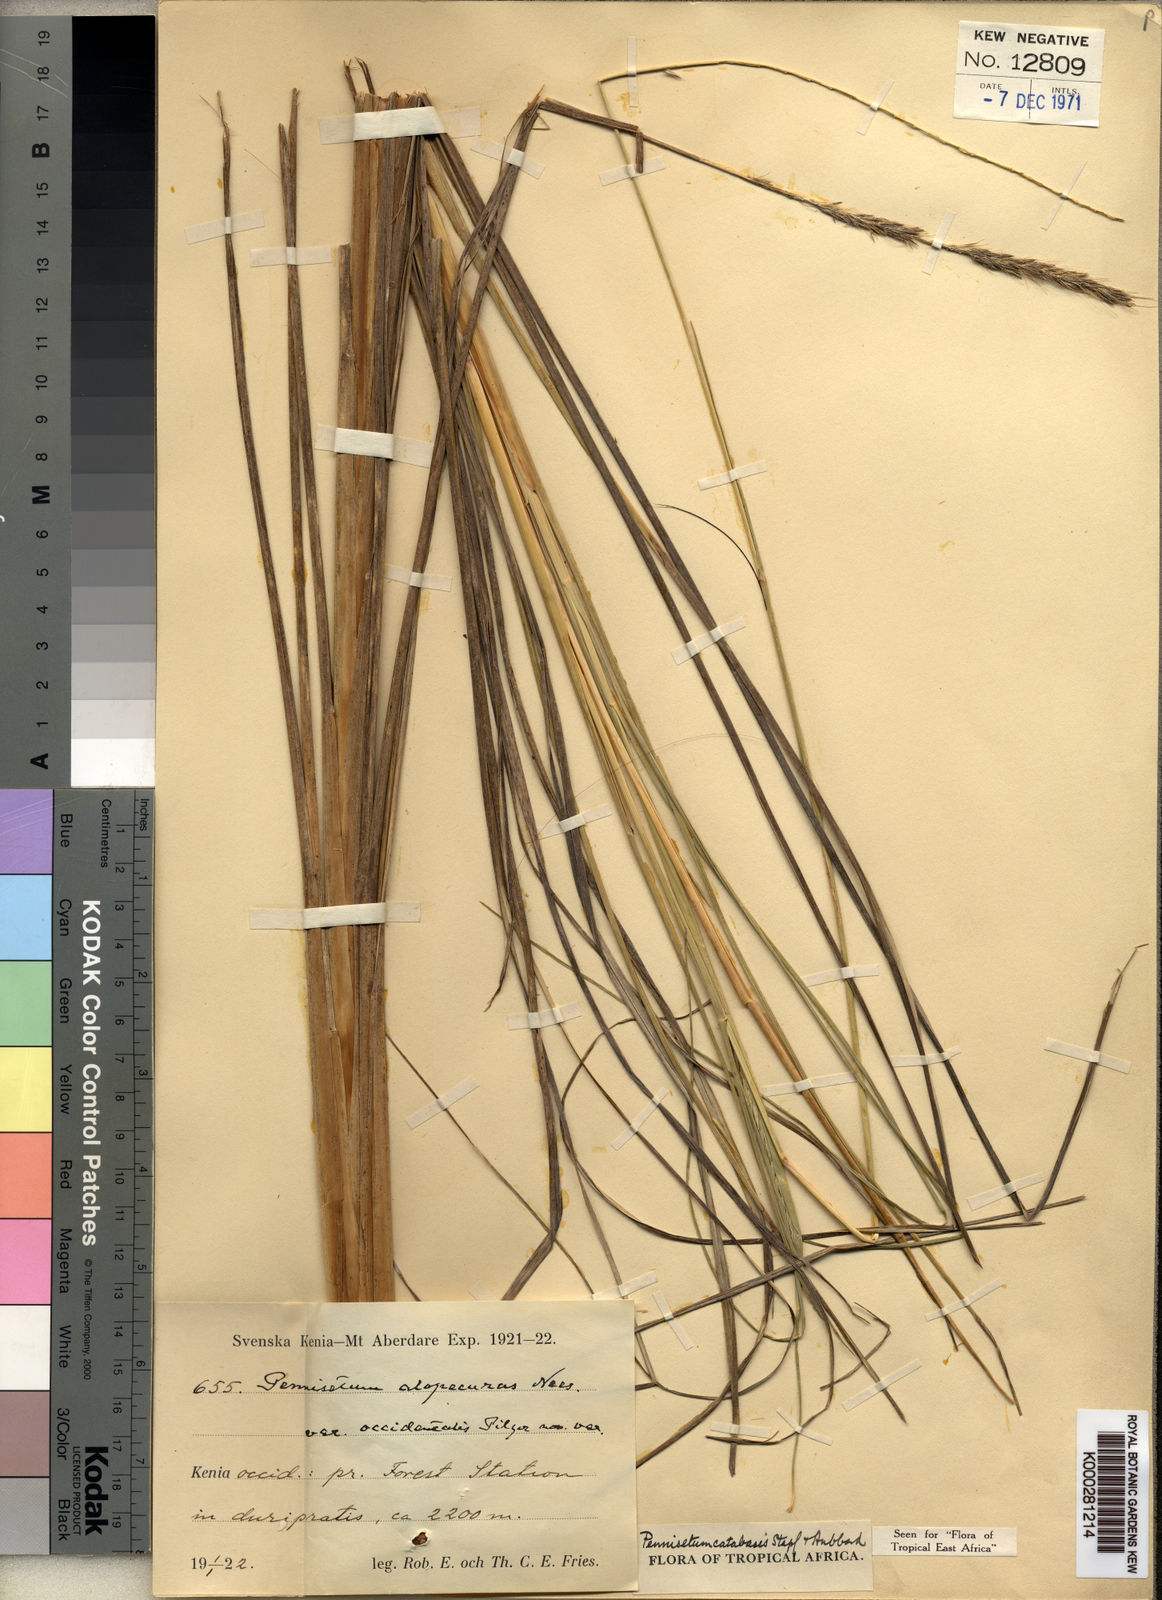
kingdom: Plantae
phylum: Tracheophyta
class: Liliopsida
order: Poales
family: Poaceae
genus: Cenchrus
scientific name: Cenchrus hohenackeri
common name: Moya grass
